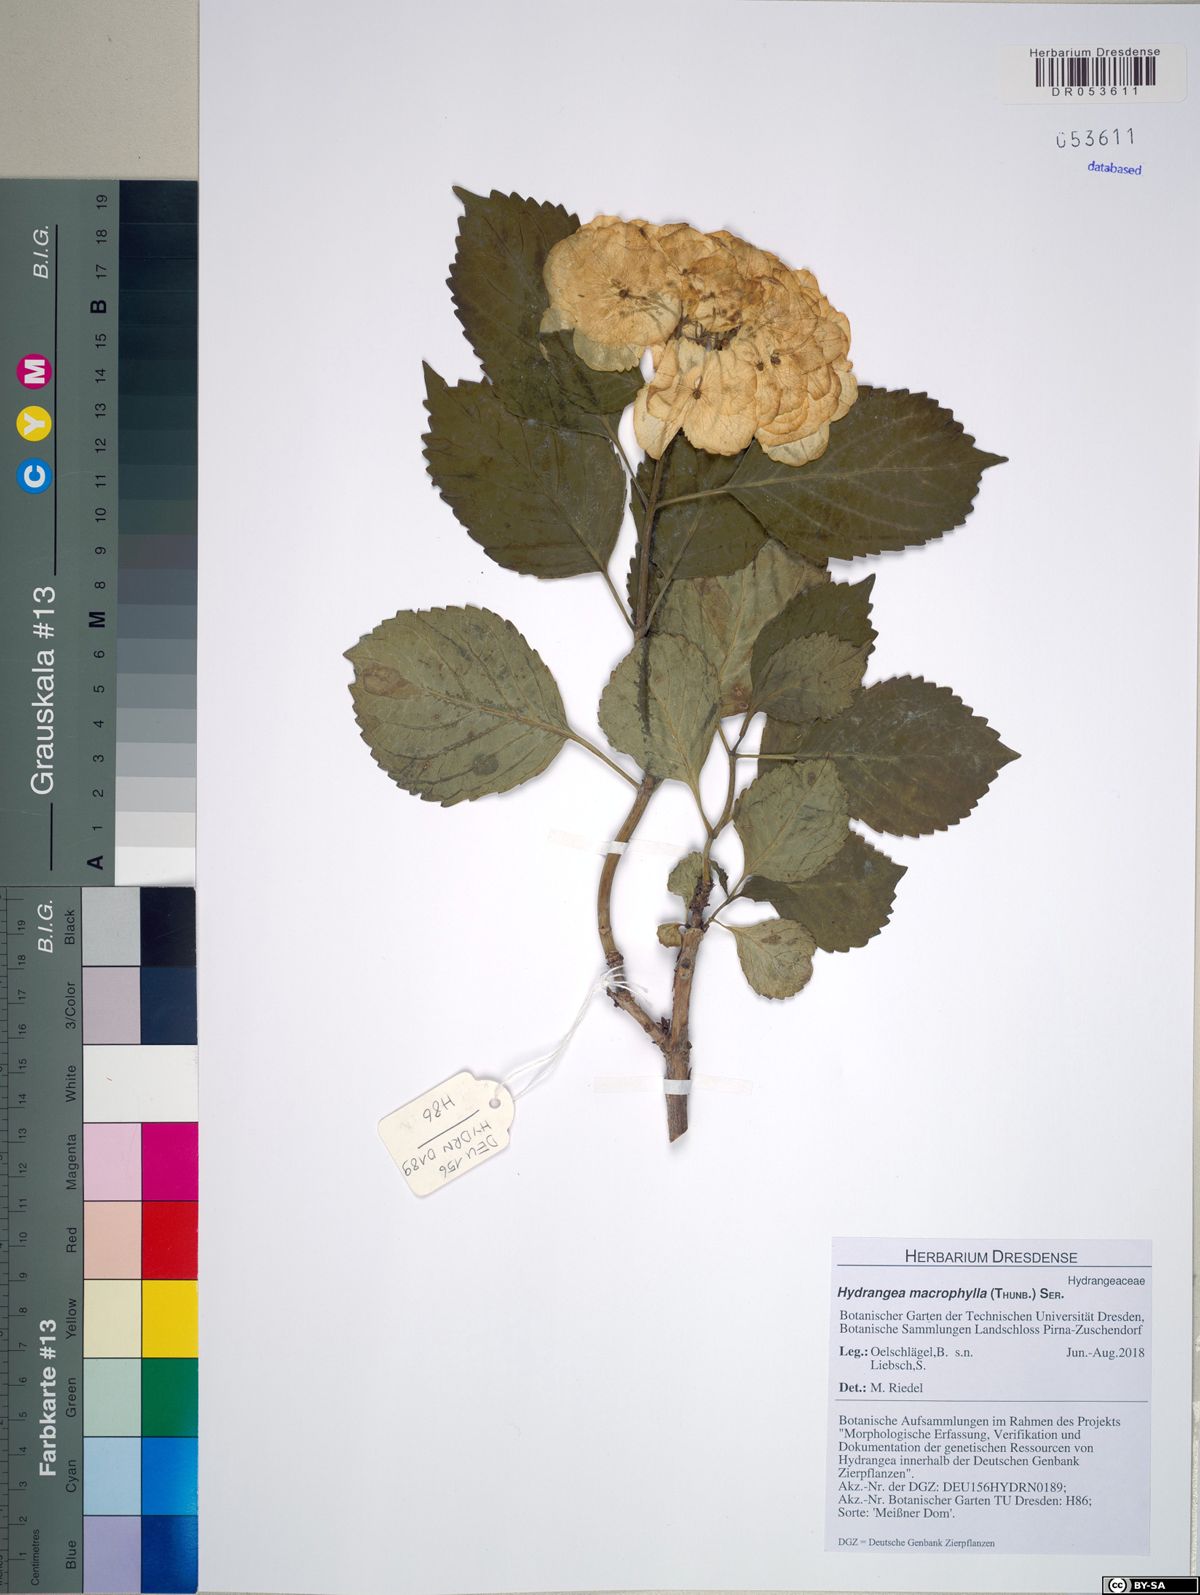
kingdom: Plantae
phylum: Tracheophyta
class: Magnoliopsida
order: Cornales
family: Hydrangeaceae
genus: Hydrangea
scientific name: Hydrangea macrophylla
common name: Hydrangea
